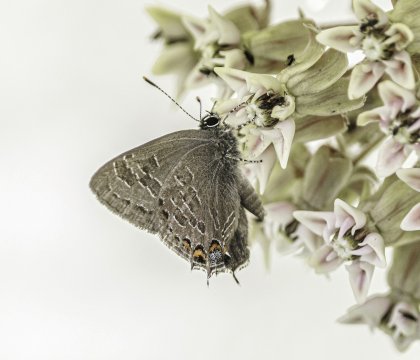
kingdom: Animalia
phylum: Arthropoda
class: Insecta
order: Lepidoptera
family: Lycaenidae
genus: Satyrium
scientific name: Satyrium liparops
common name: Striped Hairstreak
